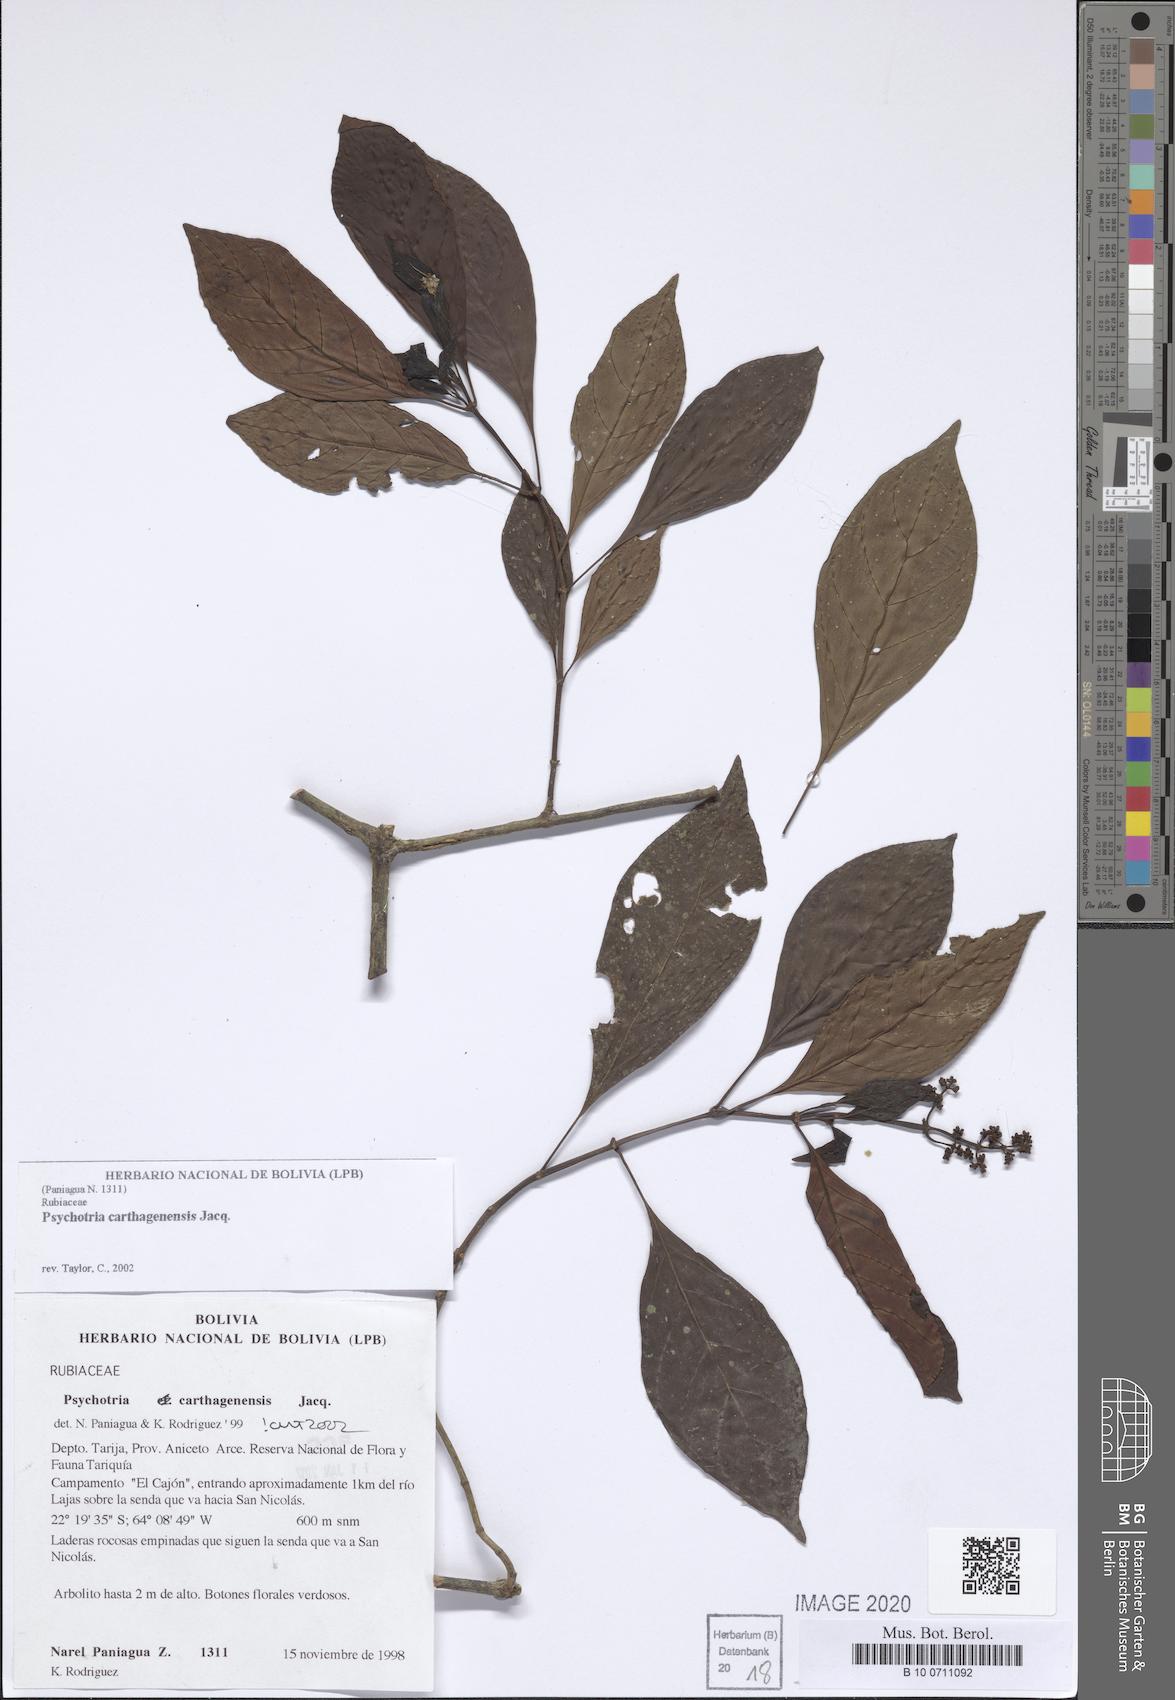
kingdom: Plantae
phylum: Tracheophyta
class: Magnoliopsida
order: Gentianales
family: Rubiaceae
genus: Psychotria
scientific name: Psychotria carthagenensis
